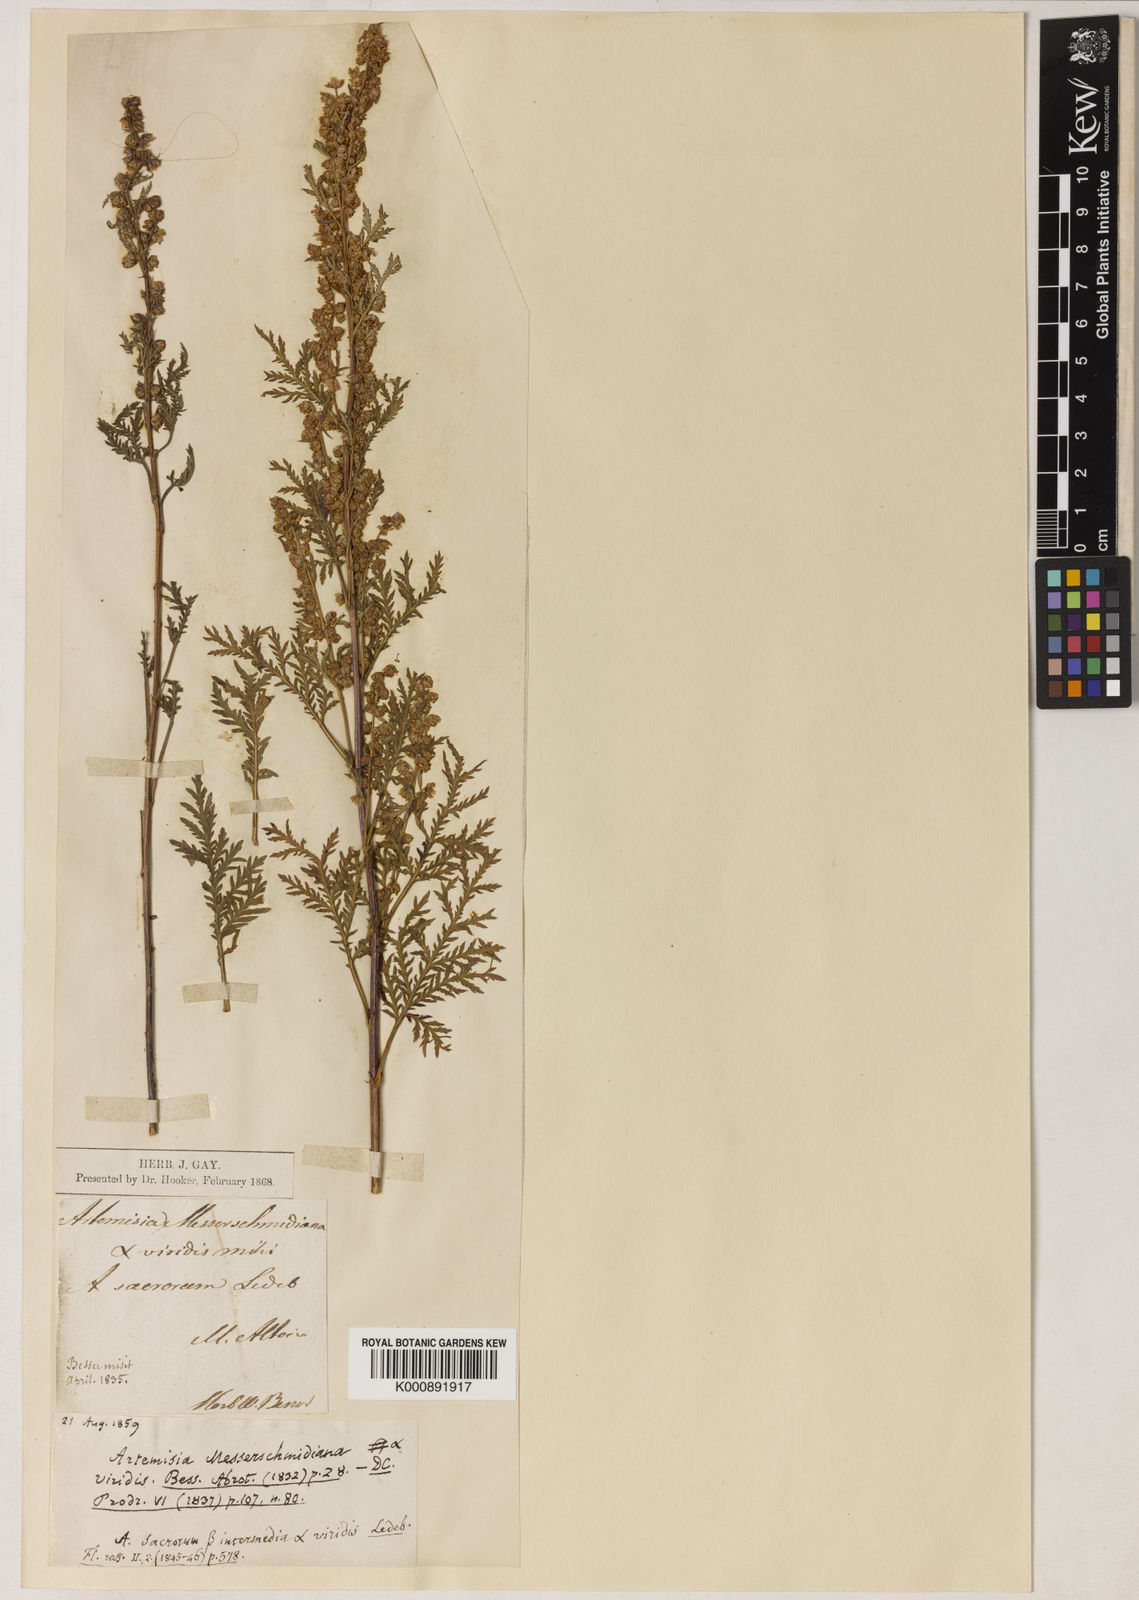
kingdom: Plantae
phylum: Tracheophyta
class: Magnoliopsida
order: Asterales
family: Asteraceae
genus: Artemisia
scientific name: Artemisia gmelinii
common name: Gmelin's wormwood
